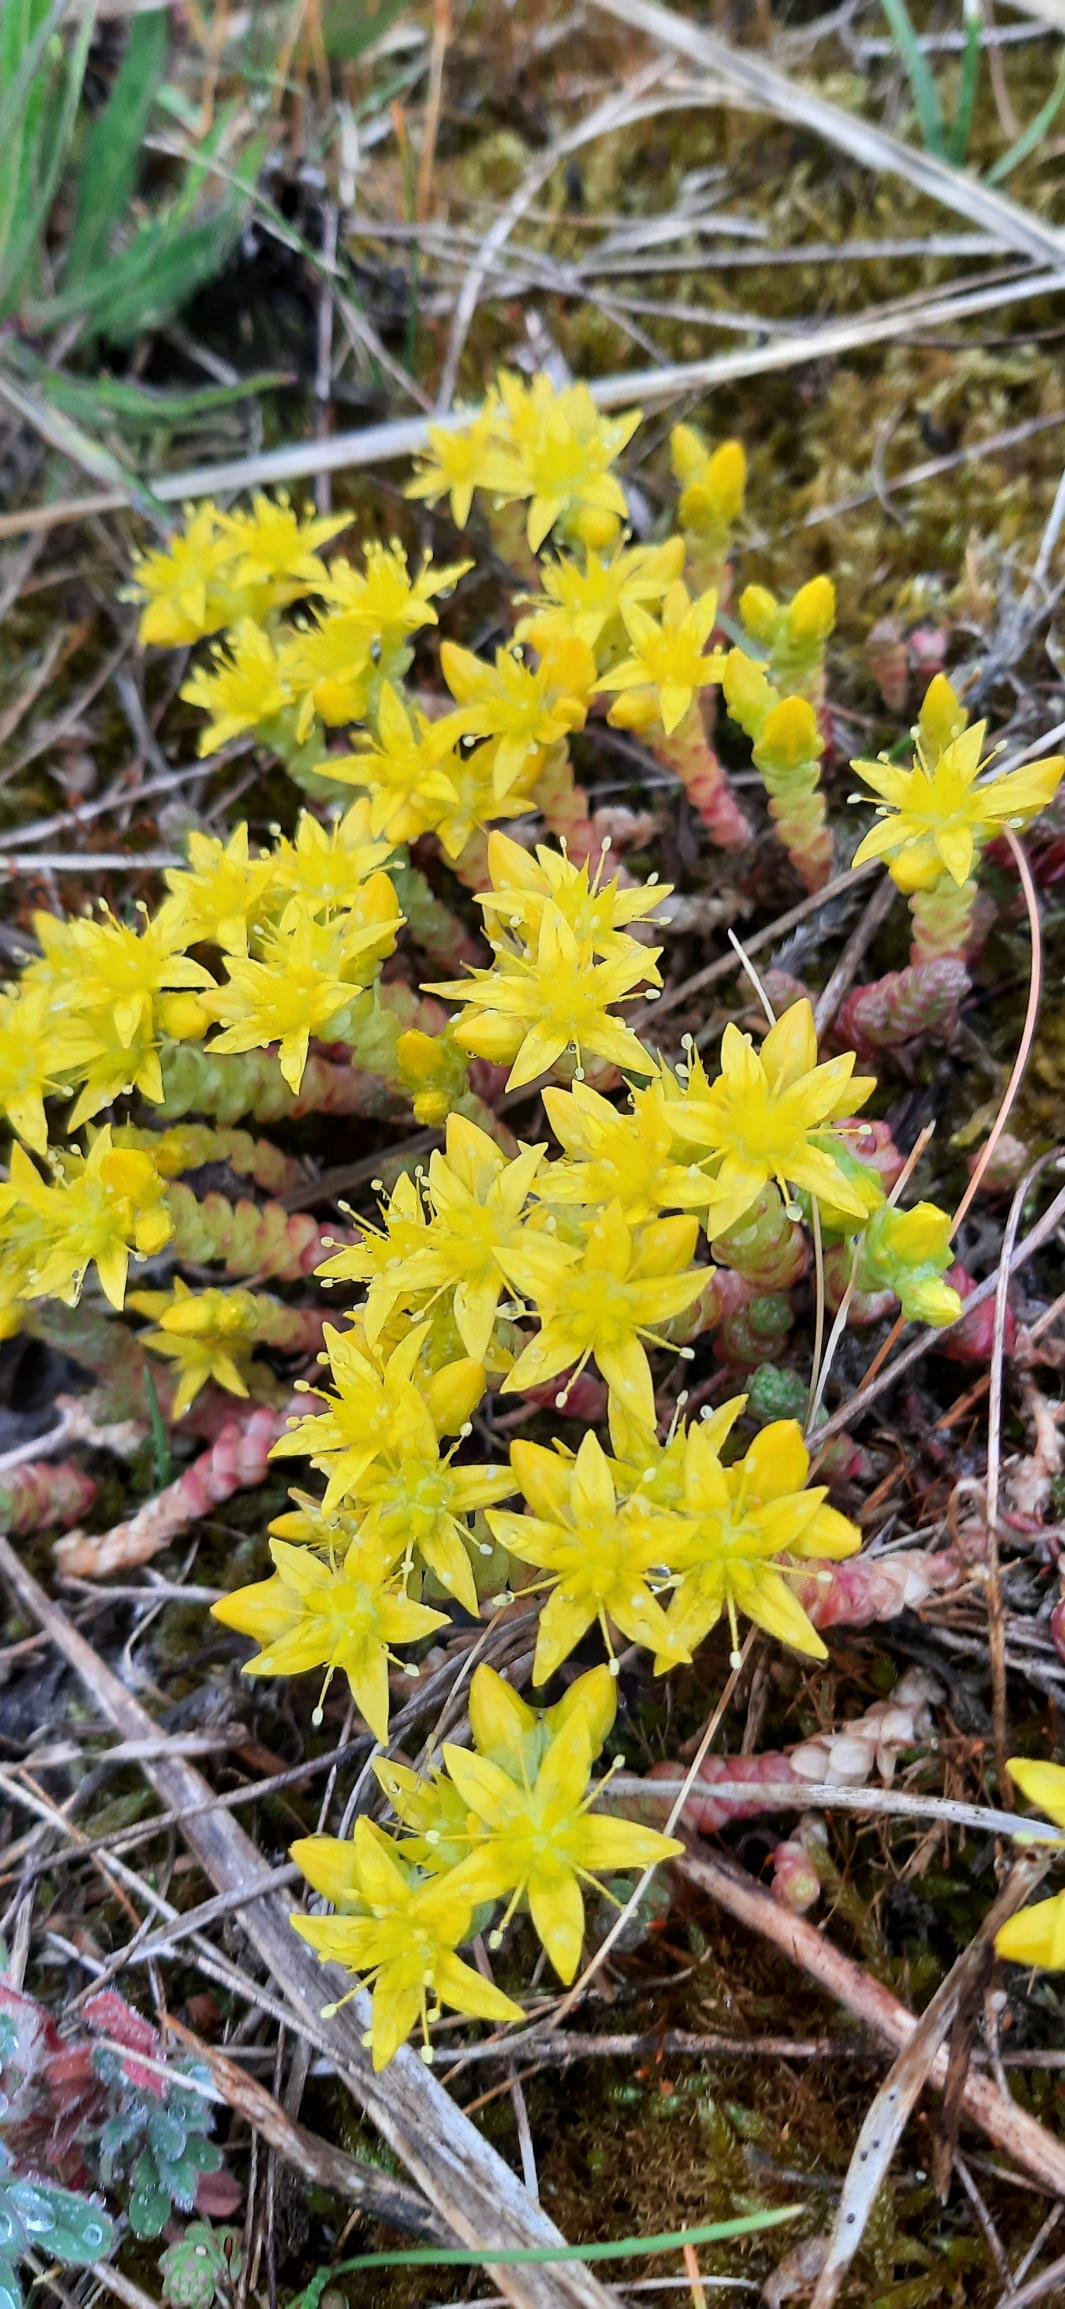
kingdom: Plantae
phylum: Tracheophyta
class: Magnoliopsida
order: Saxifragales
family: Crassulaceae
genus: Sedum
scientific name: Sedum acre
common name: Bidende stenurt
